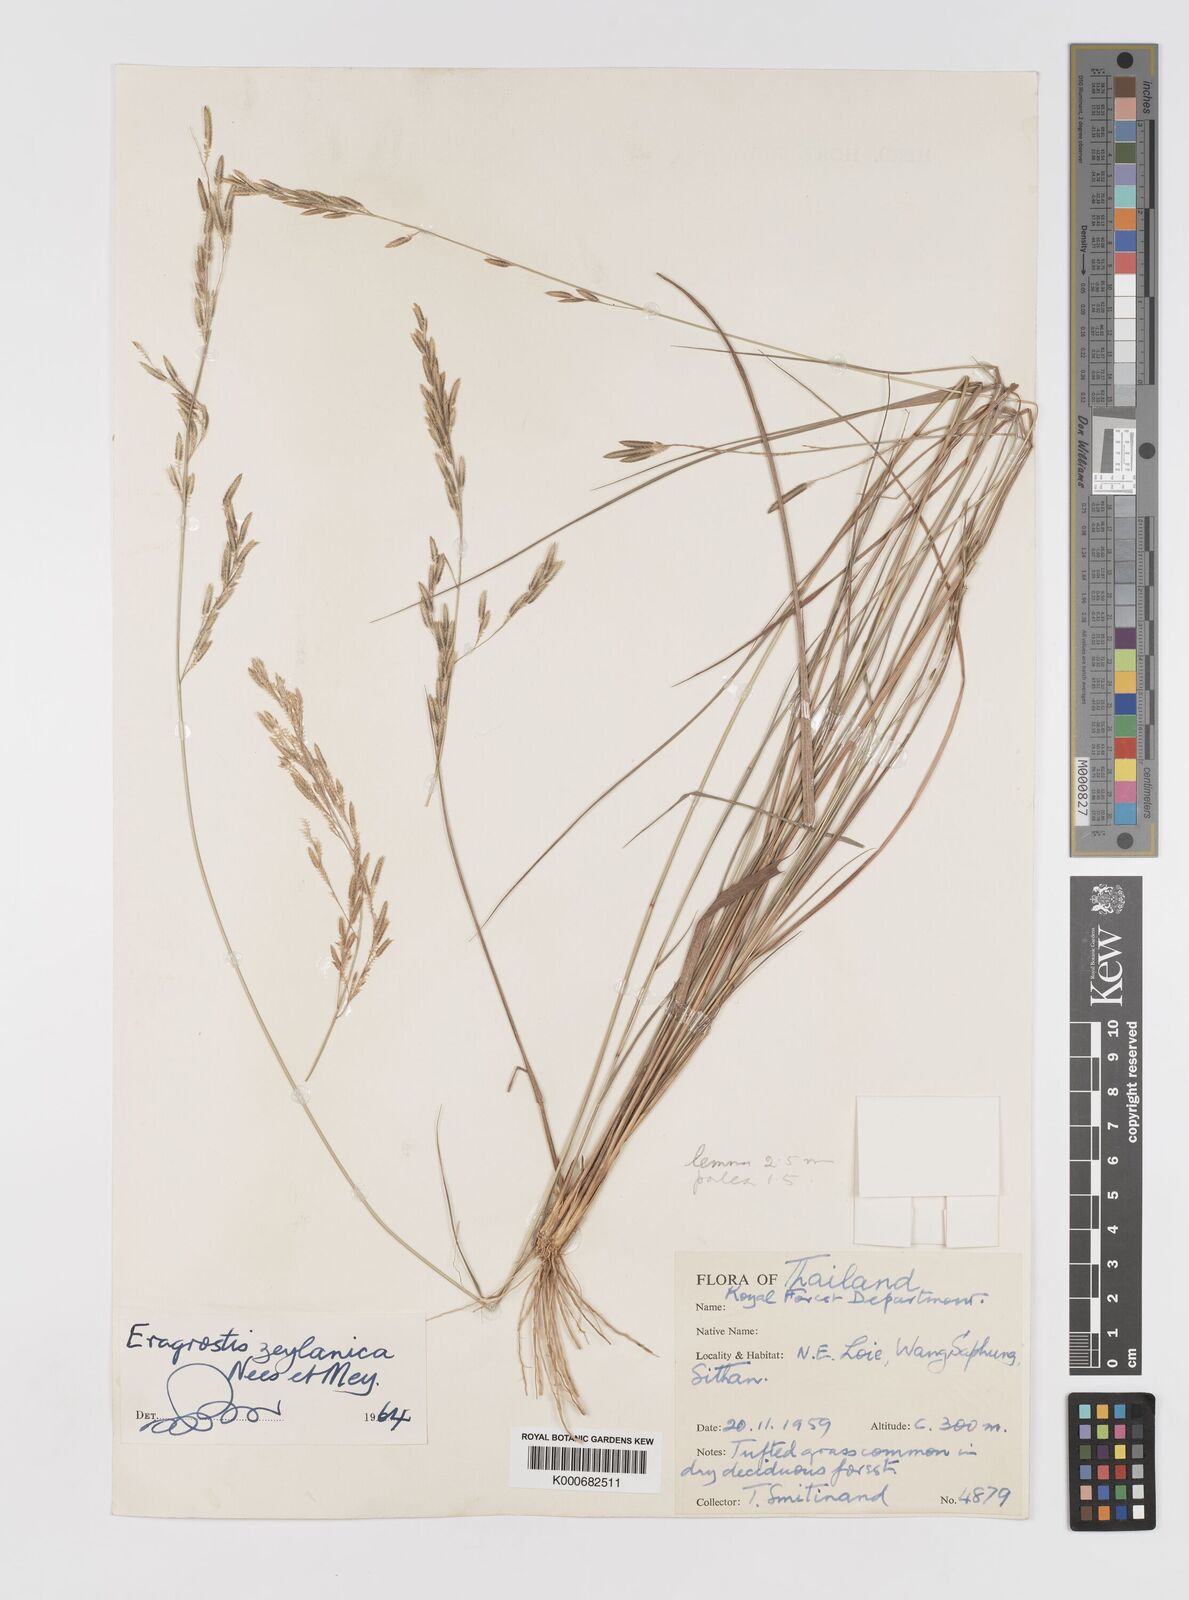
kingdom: Plantae
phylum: Tracheophyta
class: Liliopsida
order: Poales
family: Poaceae
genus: Eragrostis
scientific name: Eragrostis brownii
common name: Lovegrass
